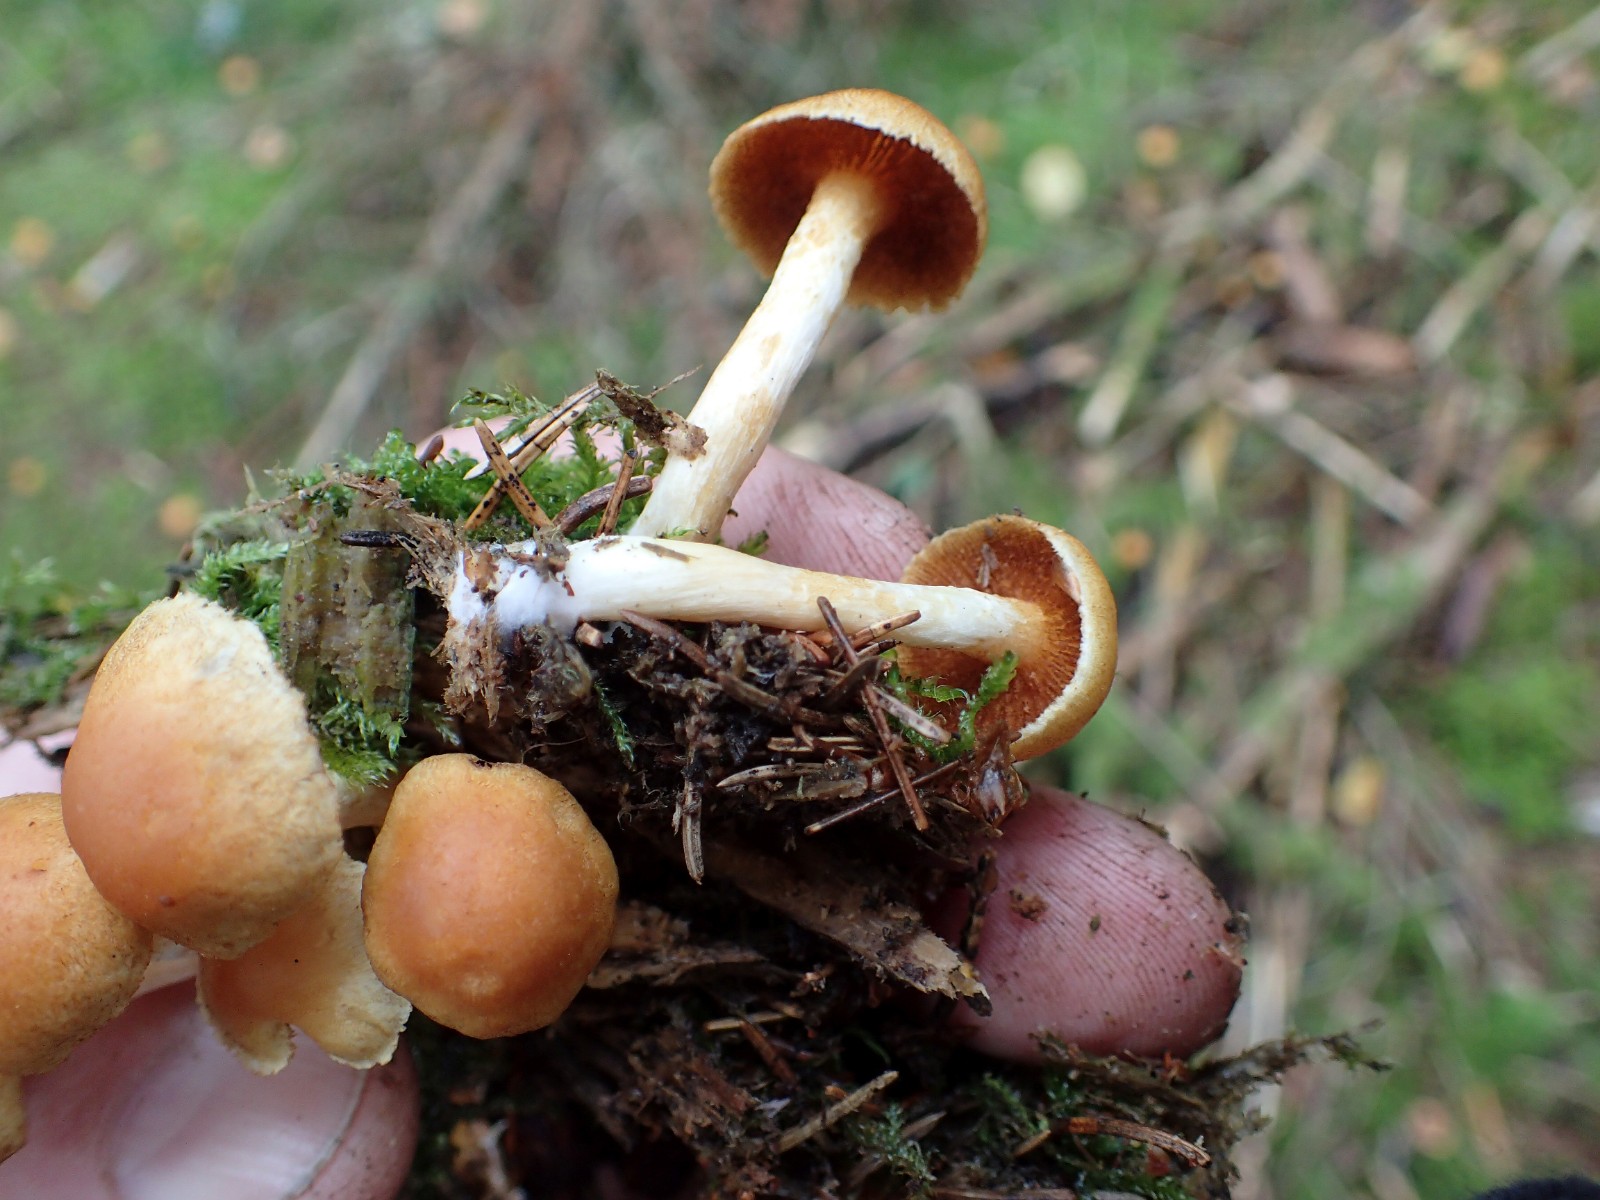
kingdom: Fungi
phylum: Basidiomycota
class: Agaricomycetes
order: Agaricales
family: Hymenogastraceae
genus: Gymnopilus
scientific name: Gymnopilus penetrans
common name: plettet flammehat
